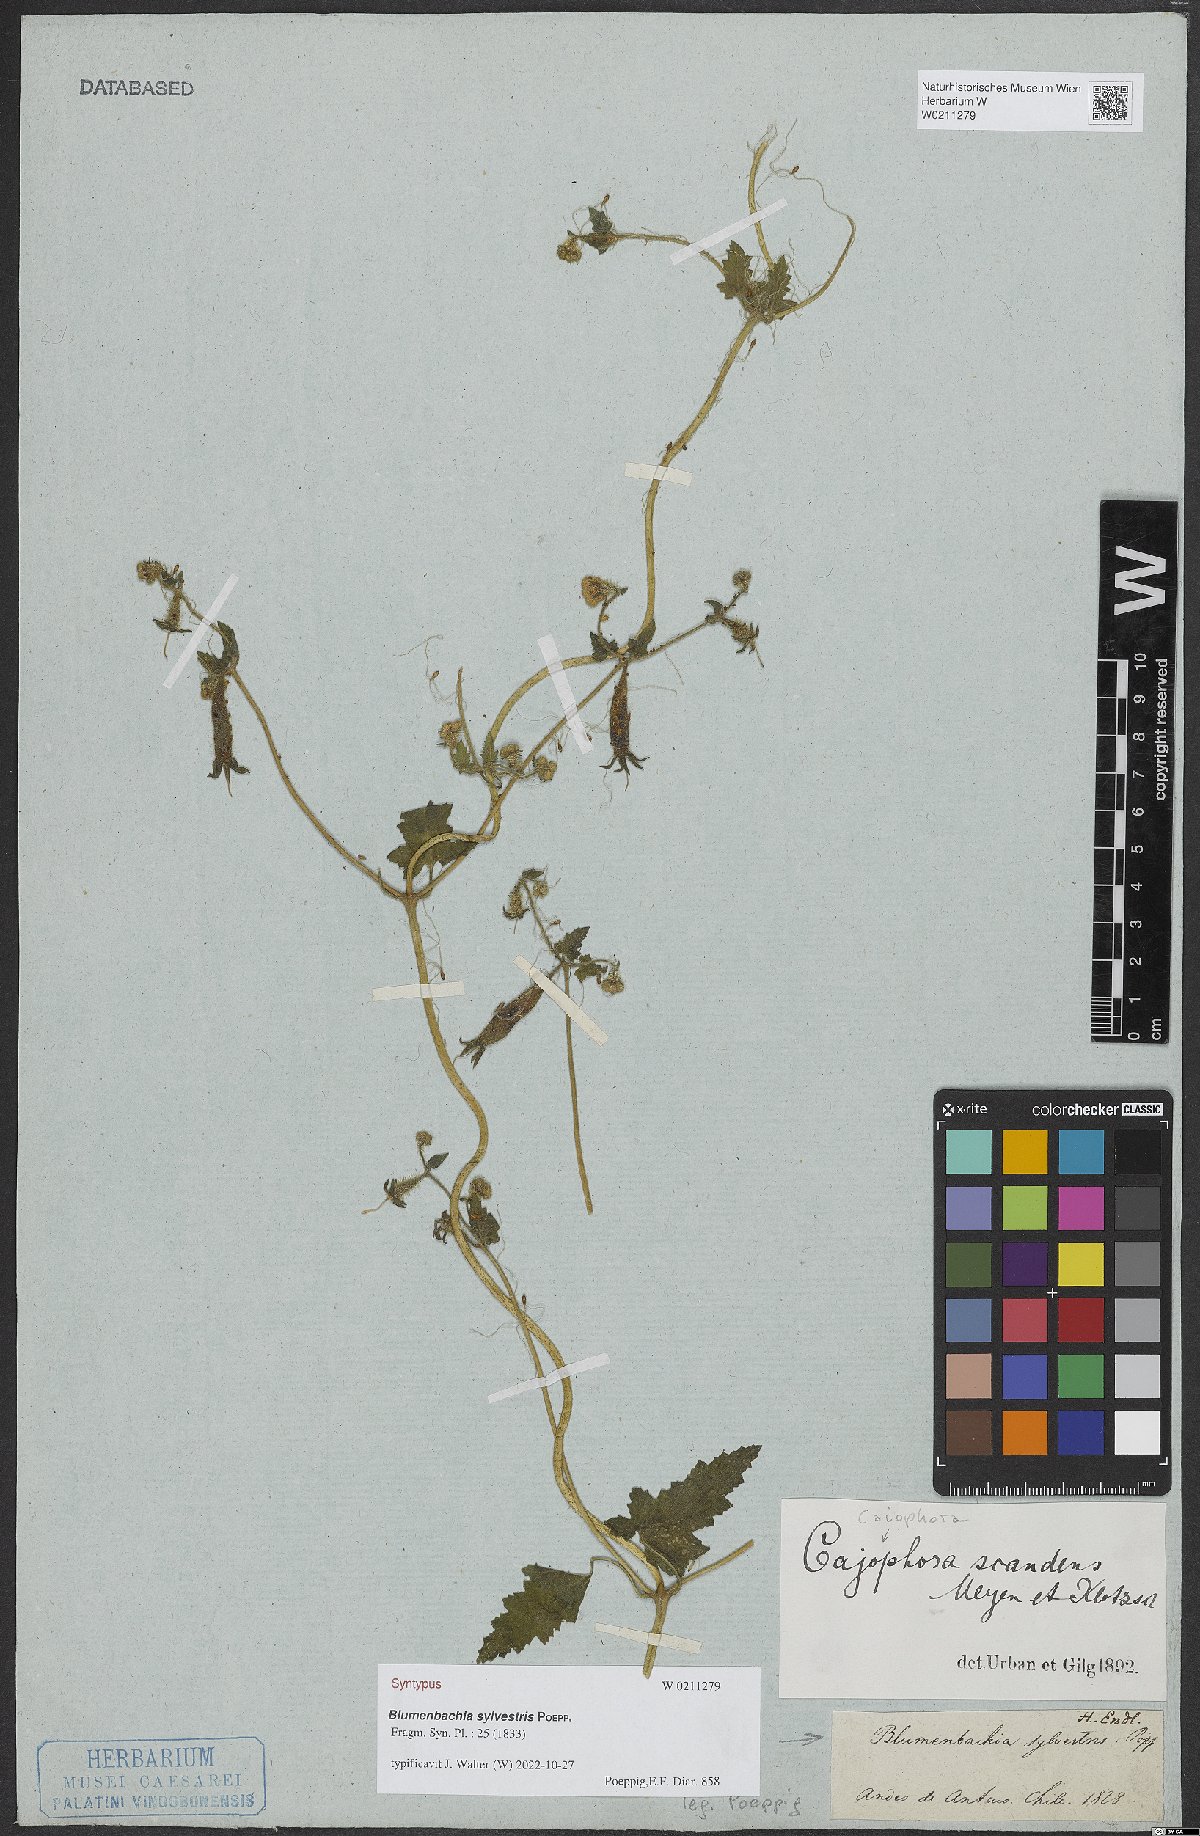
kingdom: Plantae
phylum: Tracheophyta
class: Magnoliopsida
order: Cornales
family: Loasaceae
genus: Blumenbachia
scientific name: Blumenbachia sylvestris
